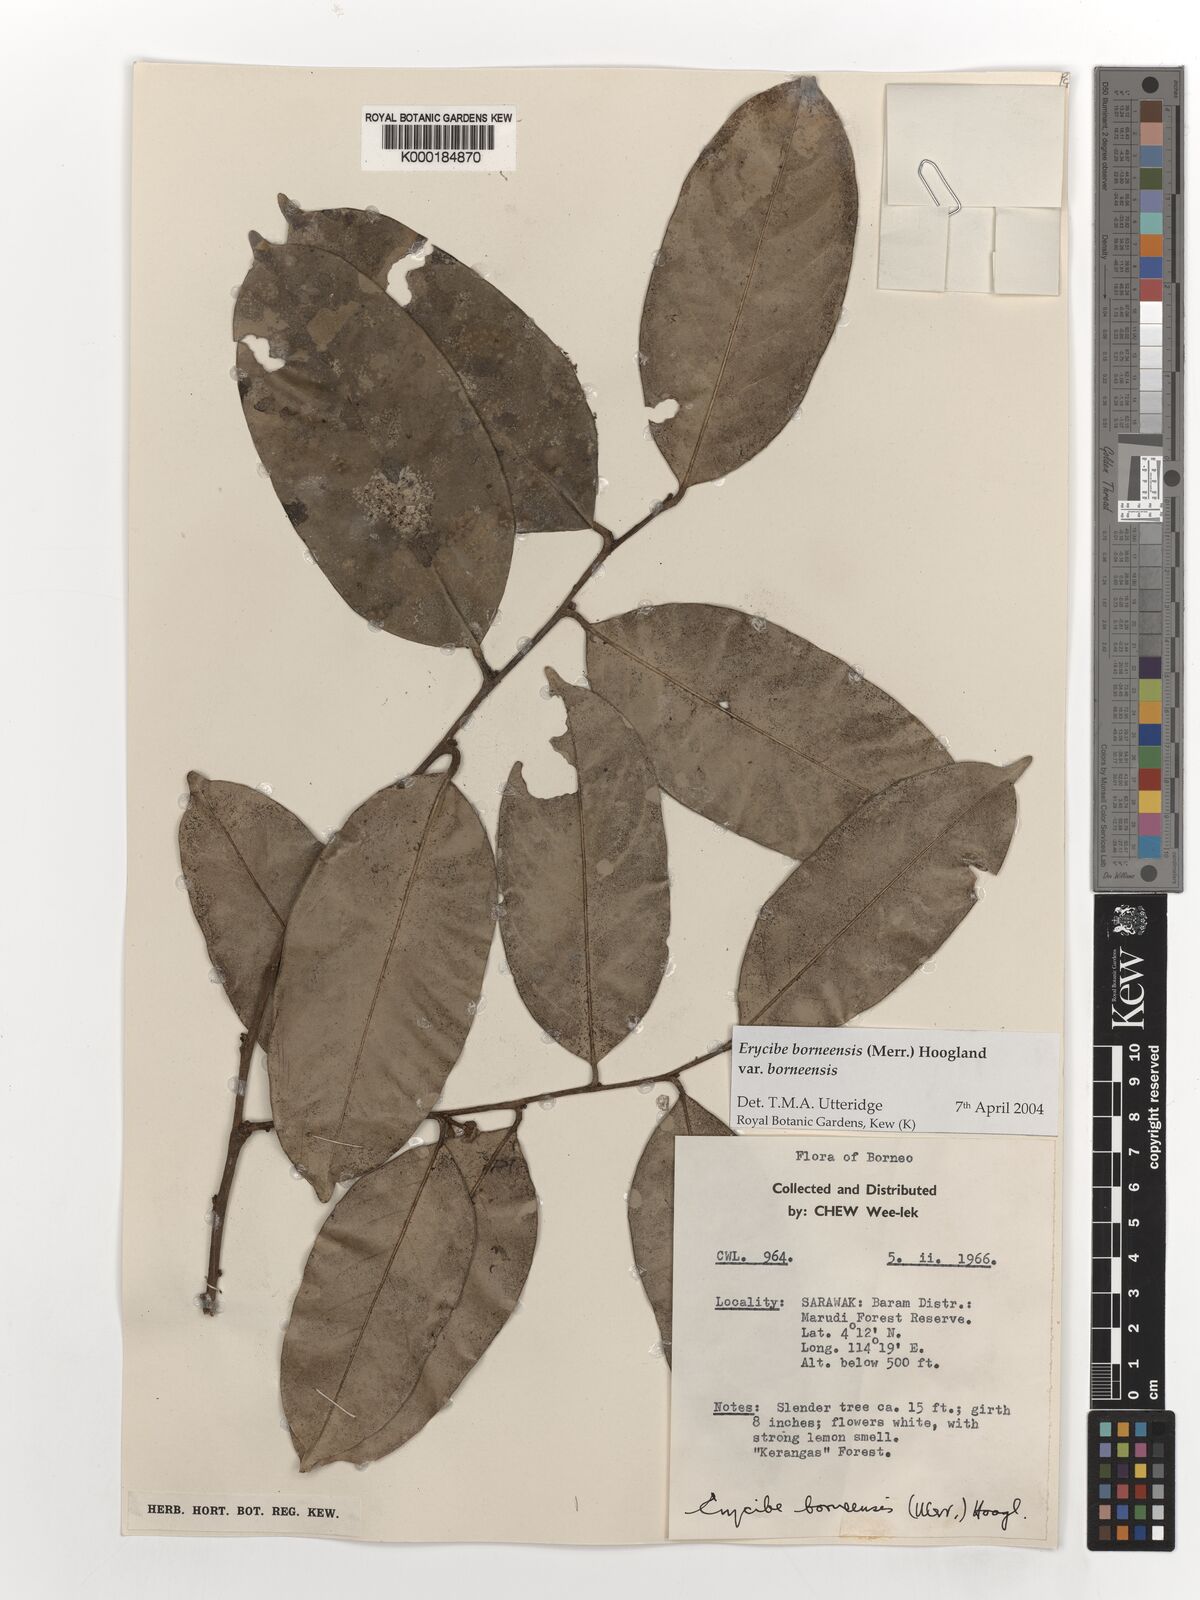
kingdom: Plantae
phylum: Tracheophyta
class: Magnoliopsida
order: Solanales
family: Convolvulaceae
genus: Erycibe
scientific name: Erycibe borneensis
